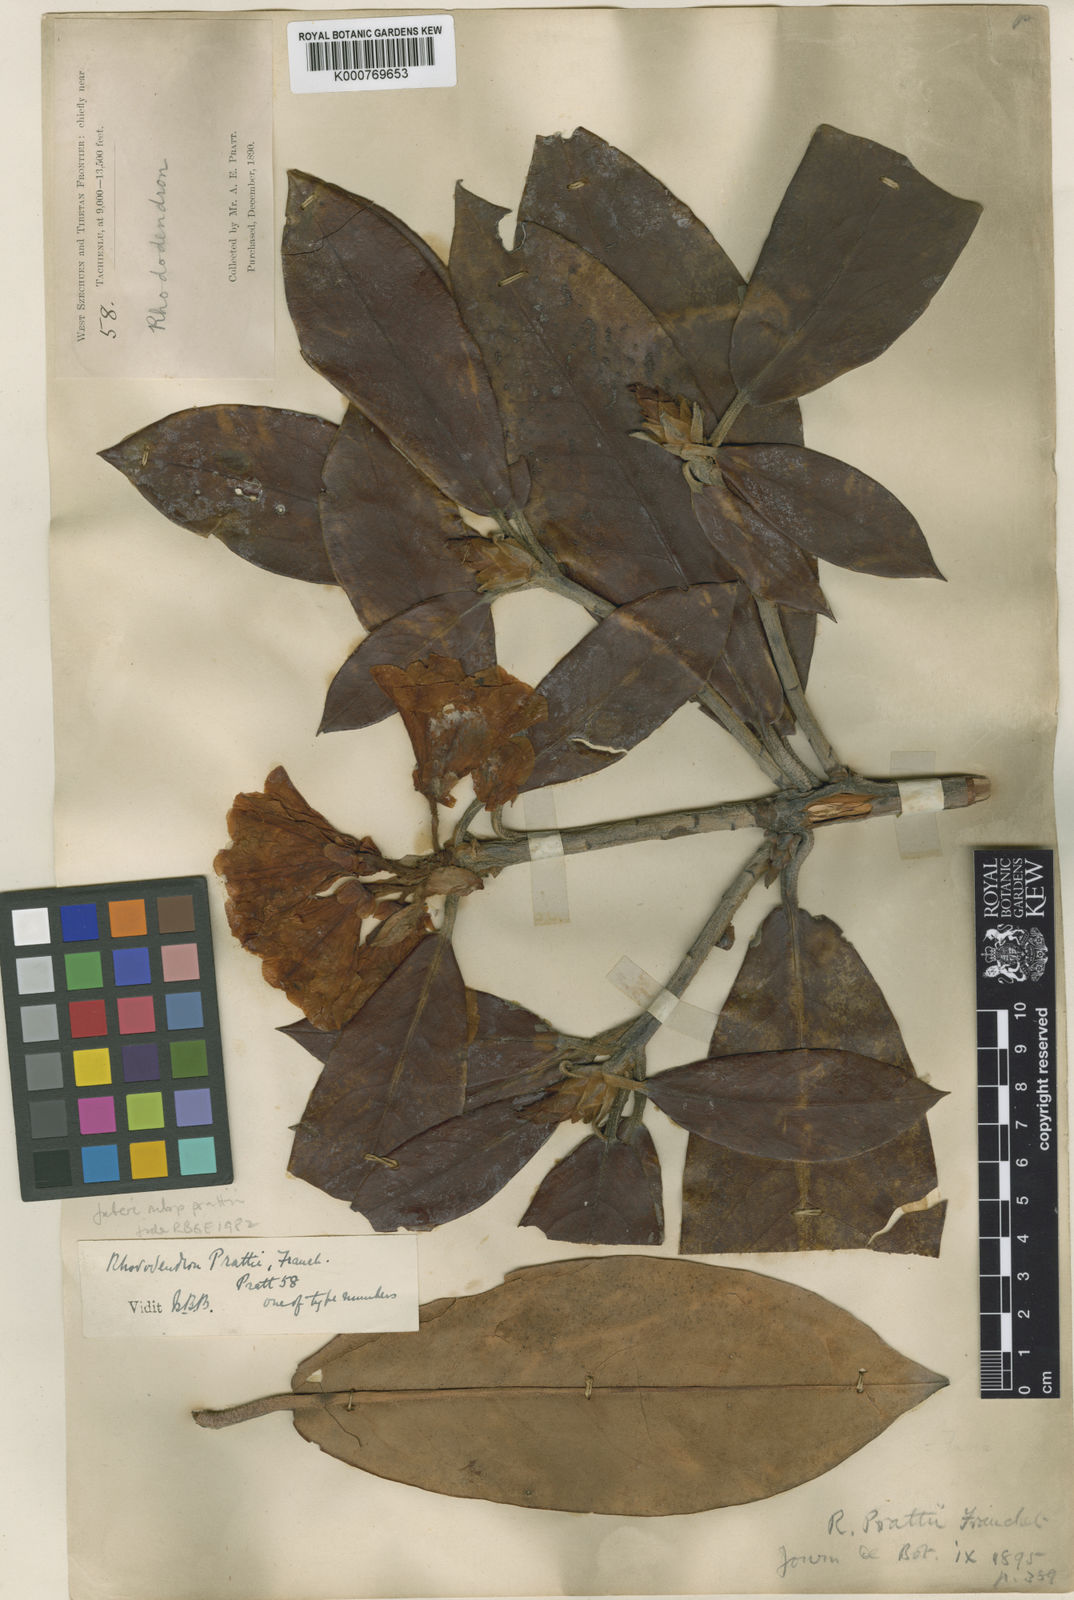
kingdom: Plantae
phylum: Tracheophyta
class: Magnoliopsida
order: Ericales
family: Ericaceae
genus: Rhododendron
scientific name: Rhododendron prattii
